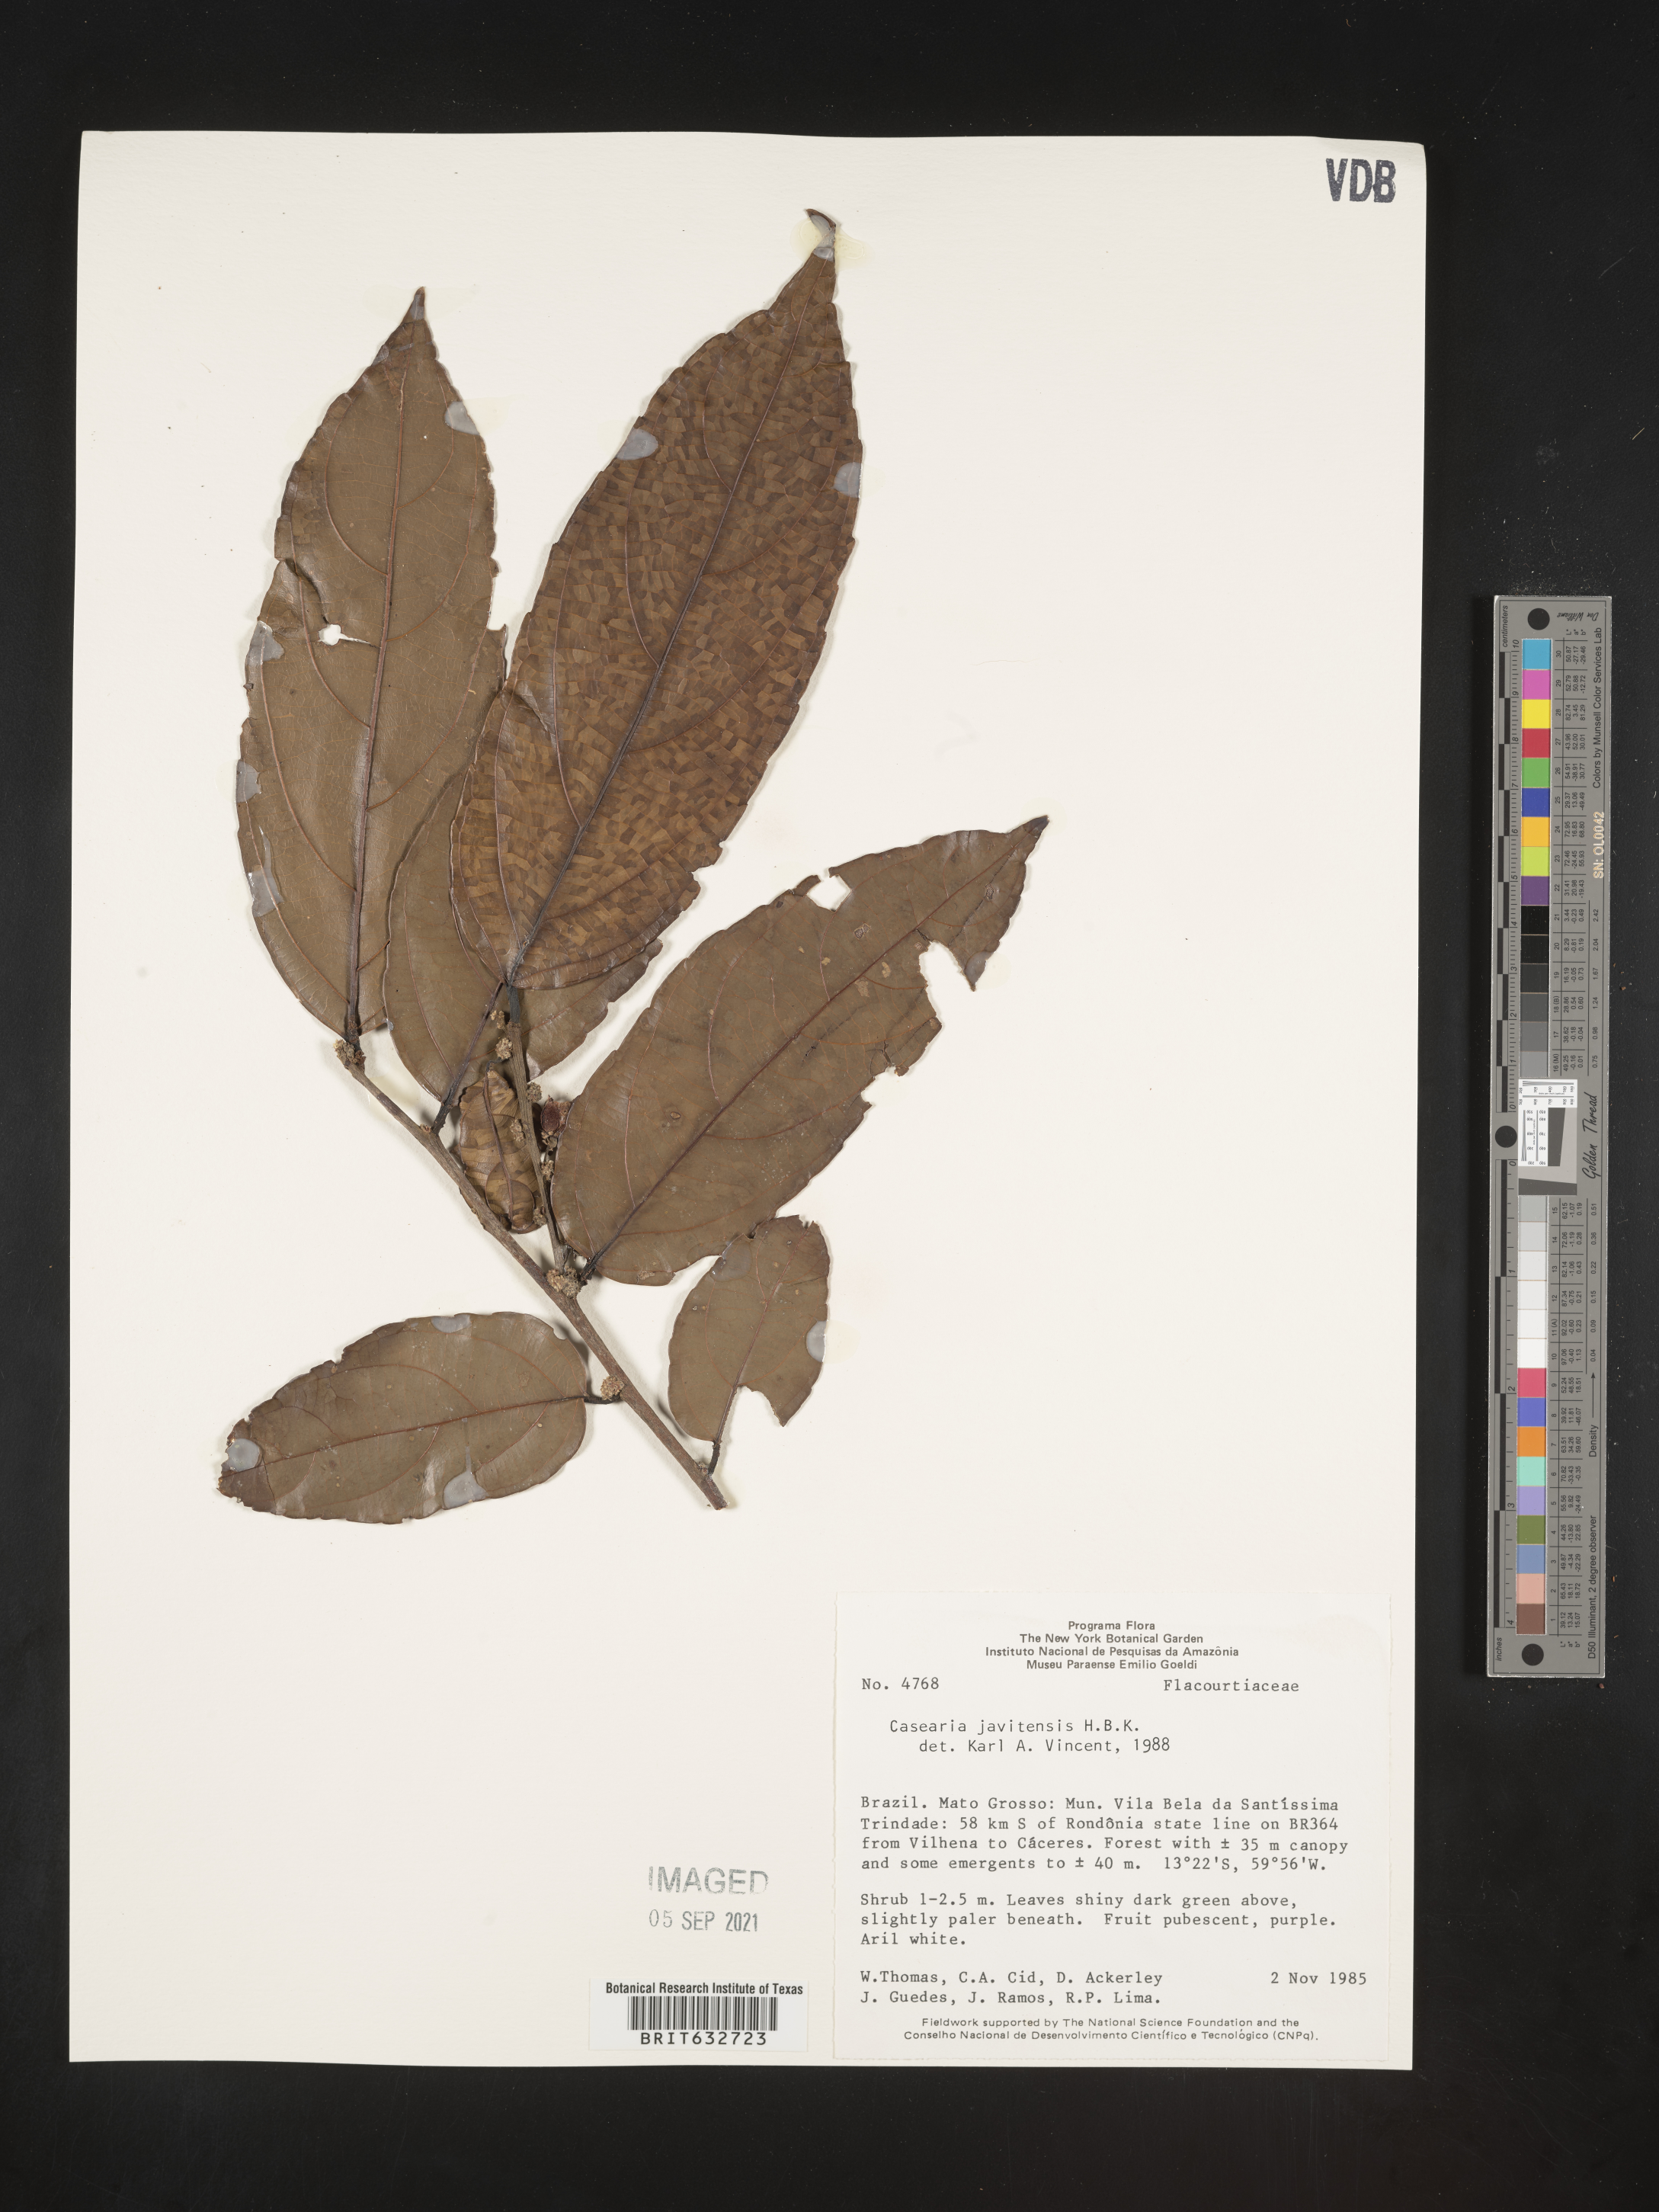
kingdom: Plantae
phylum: Tracheophyta
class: Magnoliopsida
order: Malpighiales
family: Salicaceae
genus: Casearia
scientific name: Casearia
